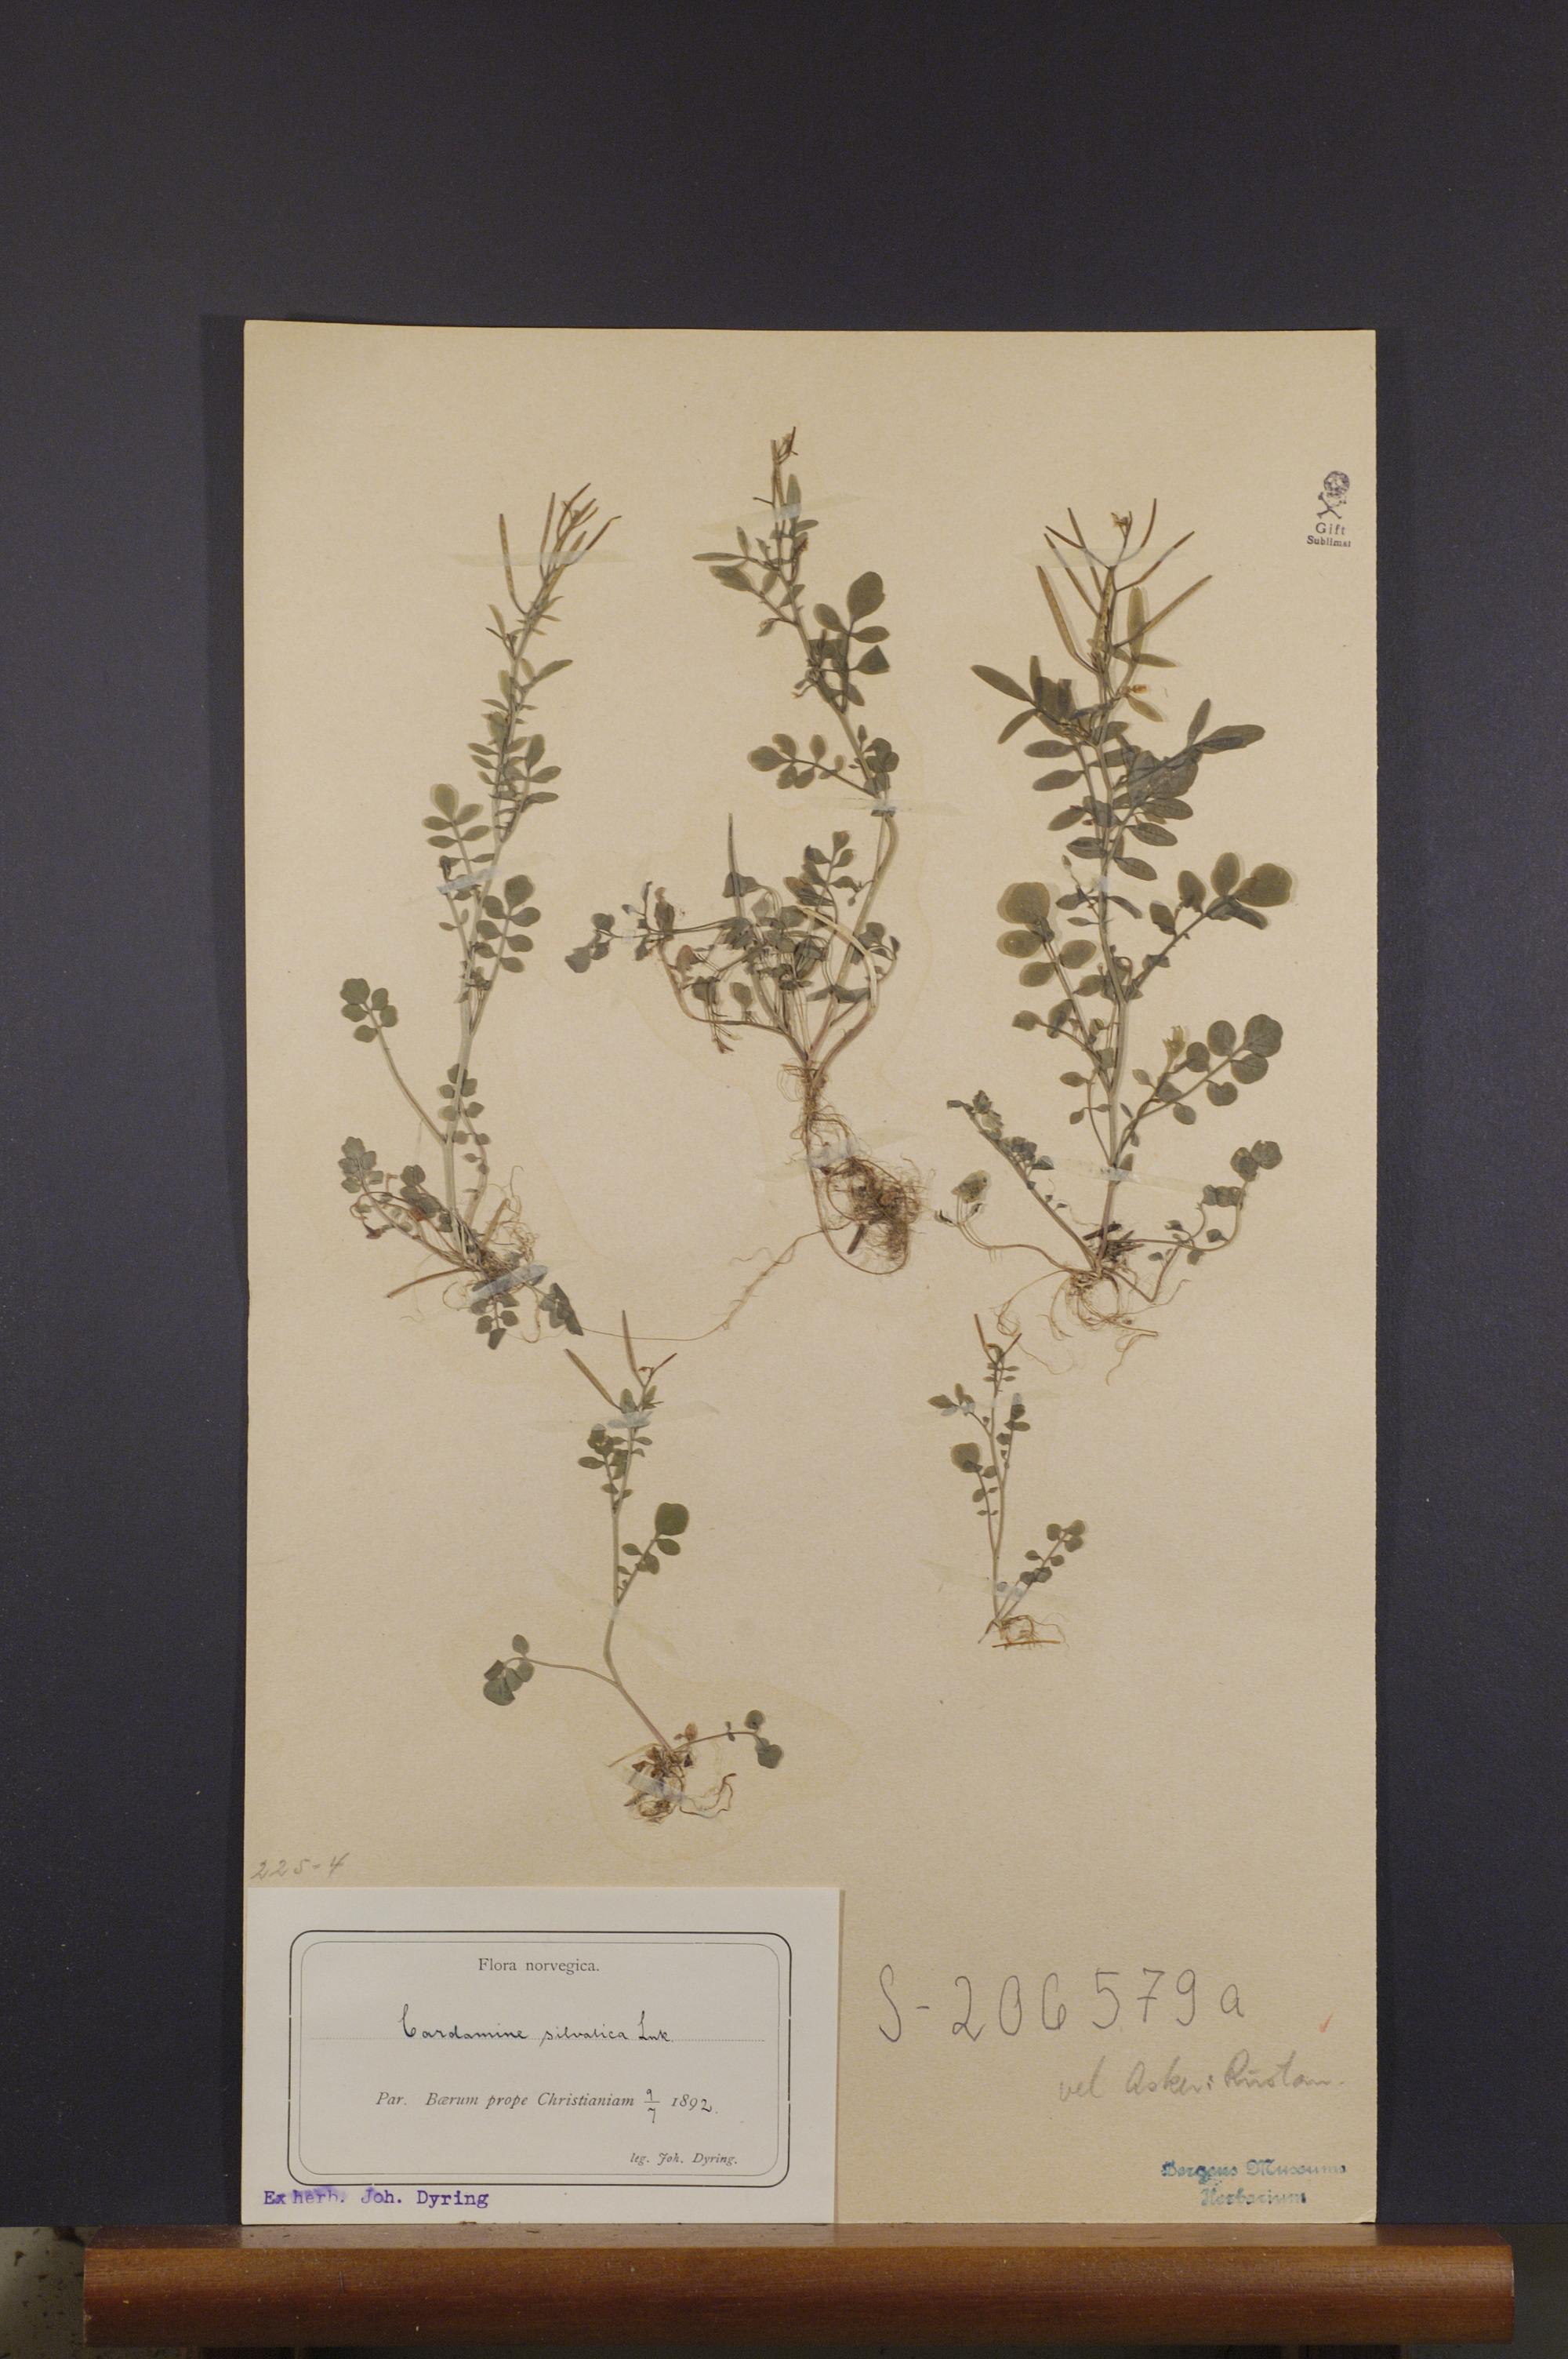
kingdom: Plantae
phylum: Tracheophyta
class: Magnoliopsida
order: Brassicales
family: Brassicaceae
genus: Cardamine
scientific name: Cardamine flexuosa
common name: Woodland bittercress
